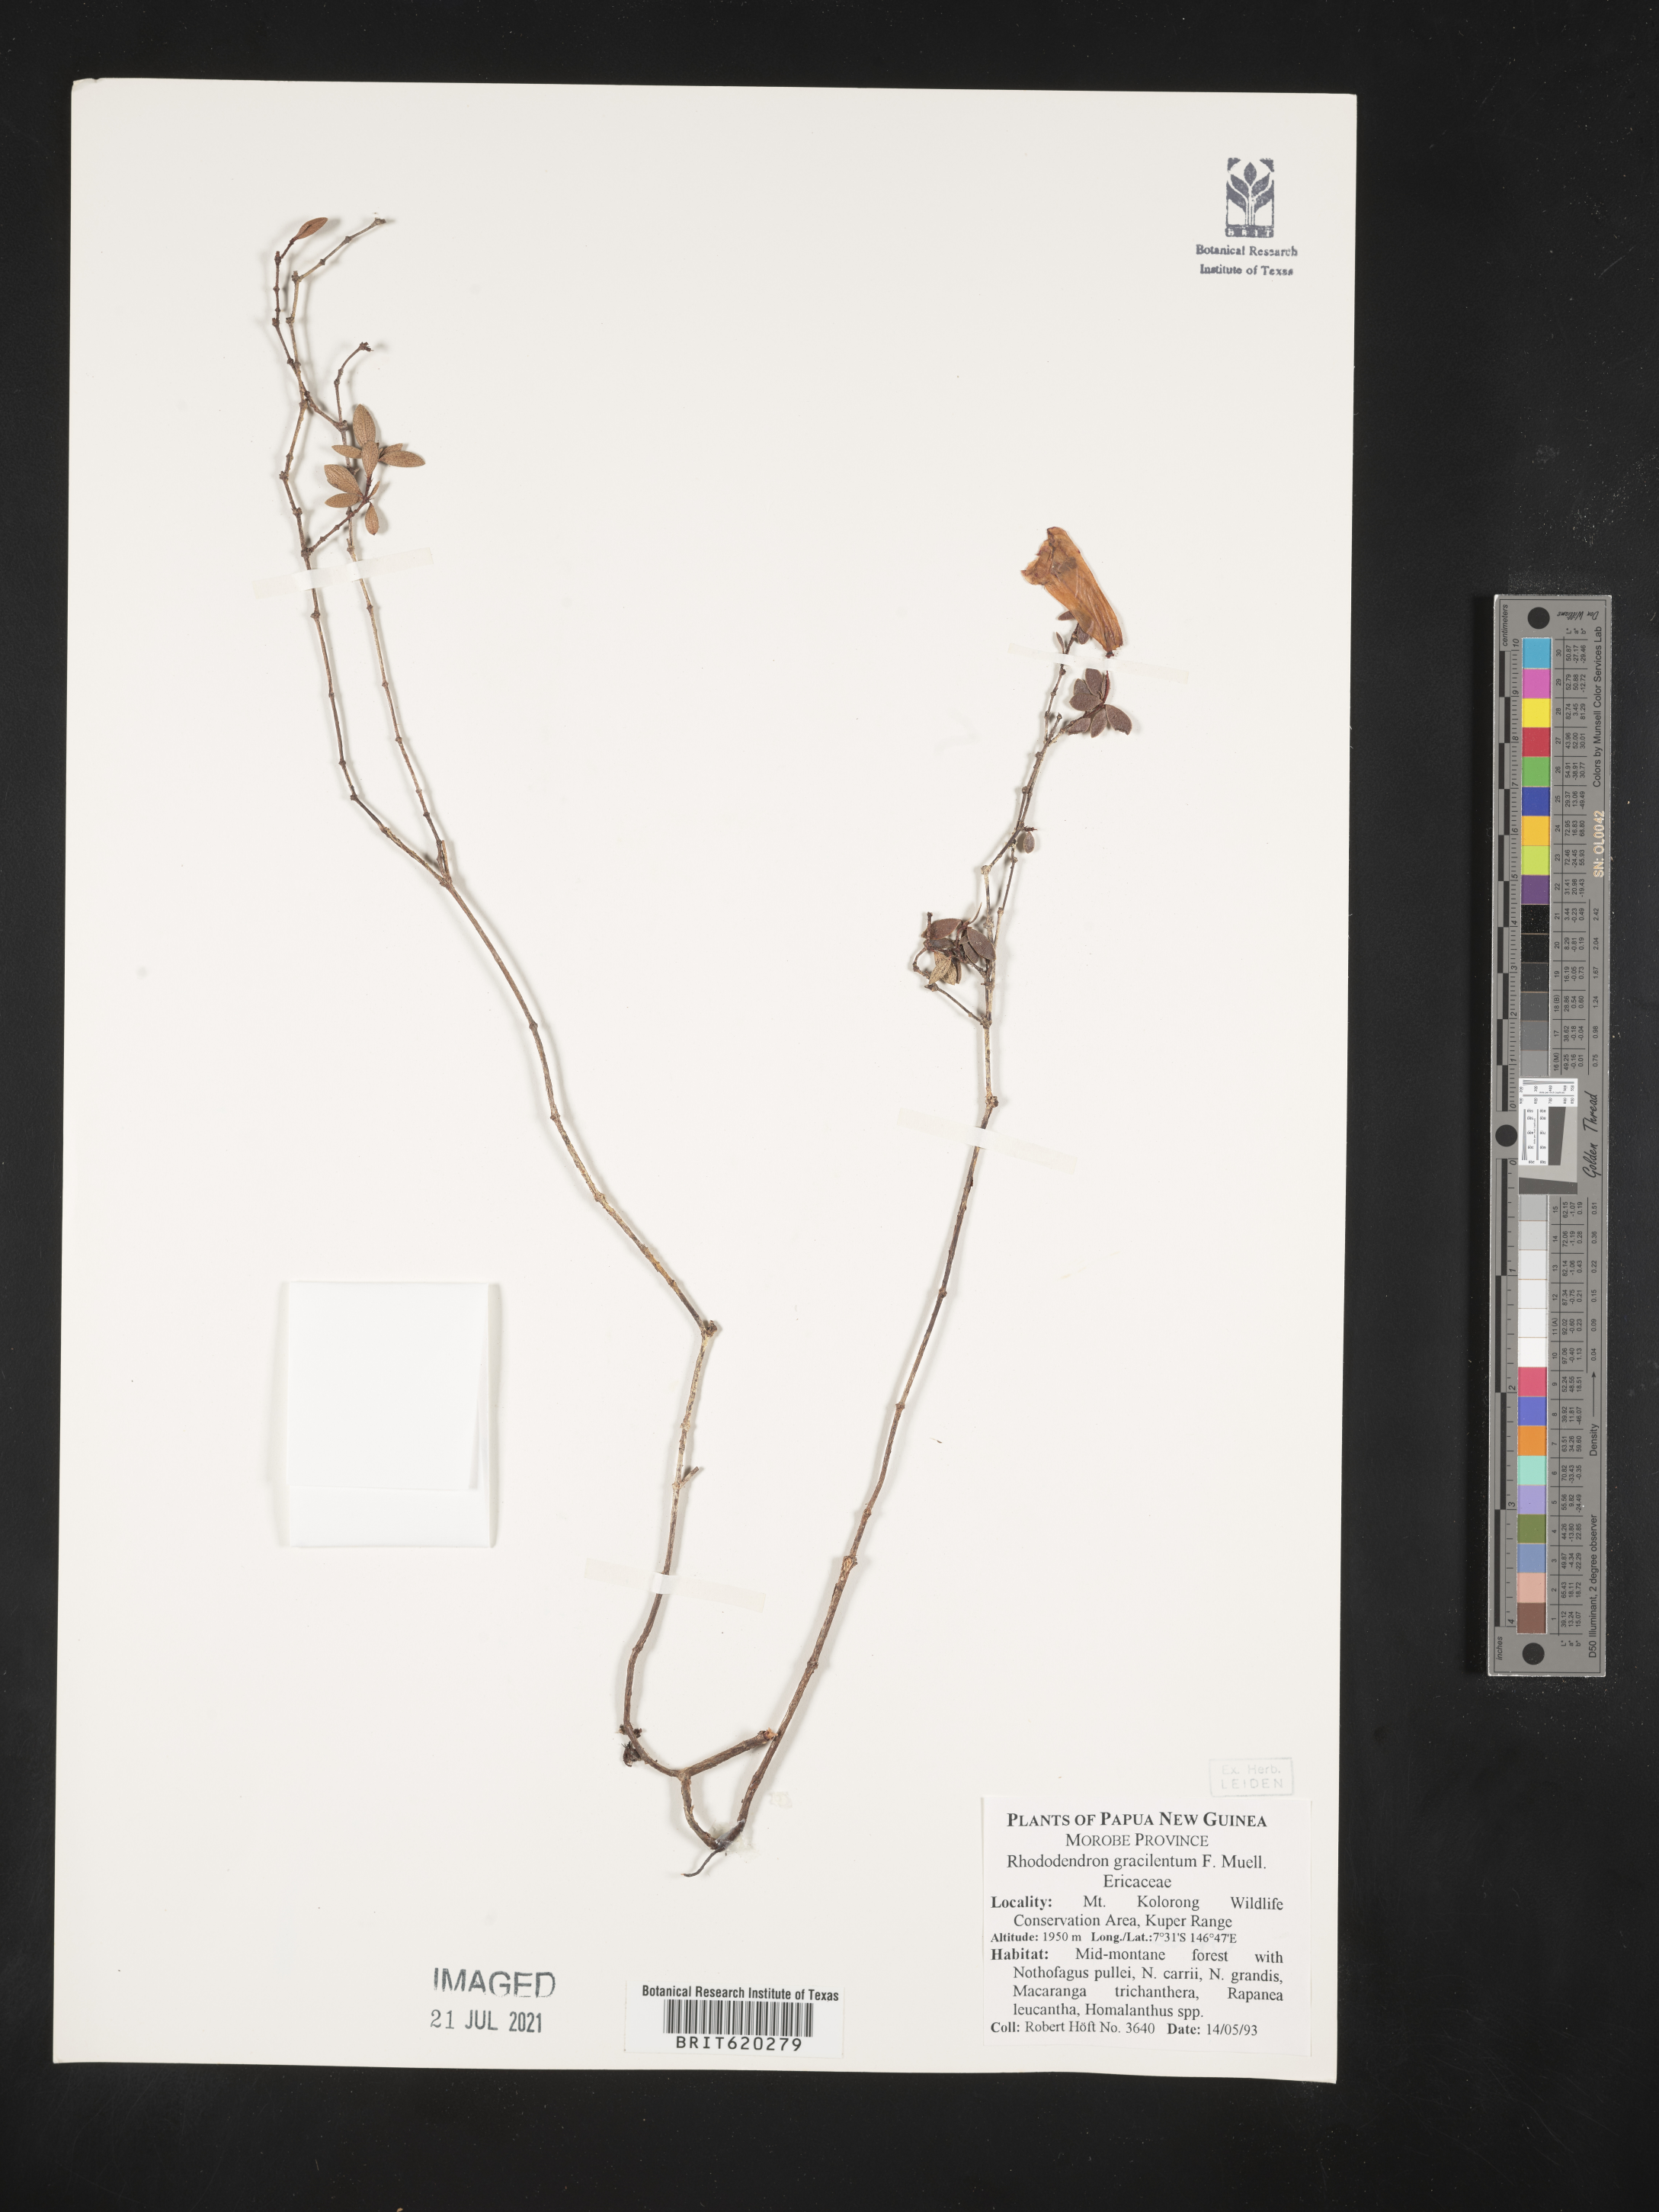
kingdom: Plantae
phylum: Tracheophyta
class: Magnoliopsida
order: Ericales
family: Ericaceae
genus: Rhododendron
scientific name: Rhododendron gracilentum
